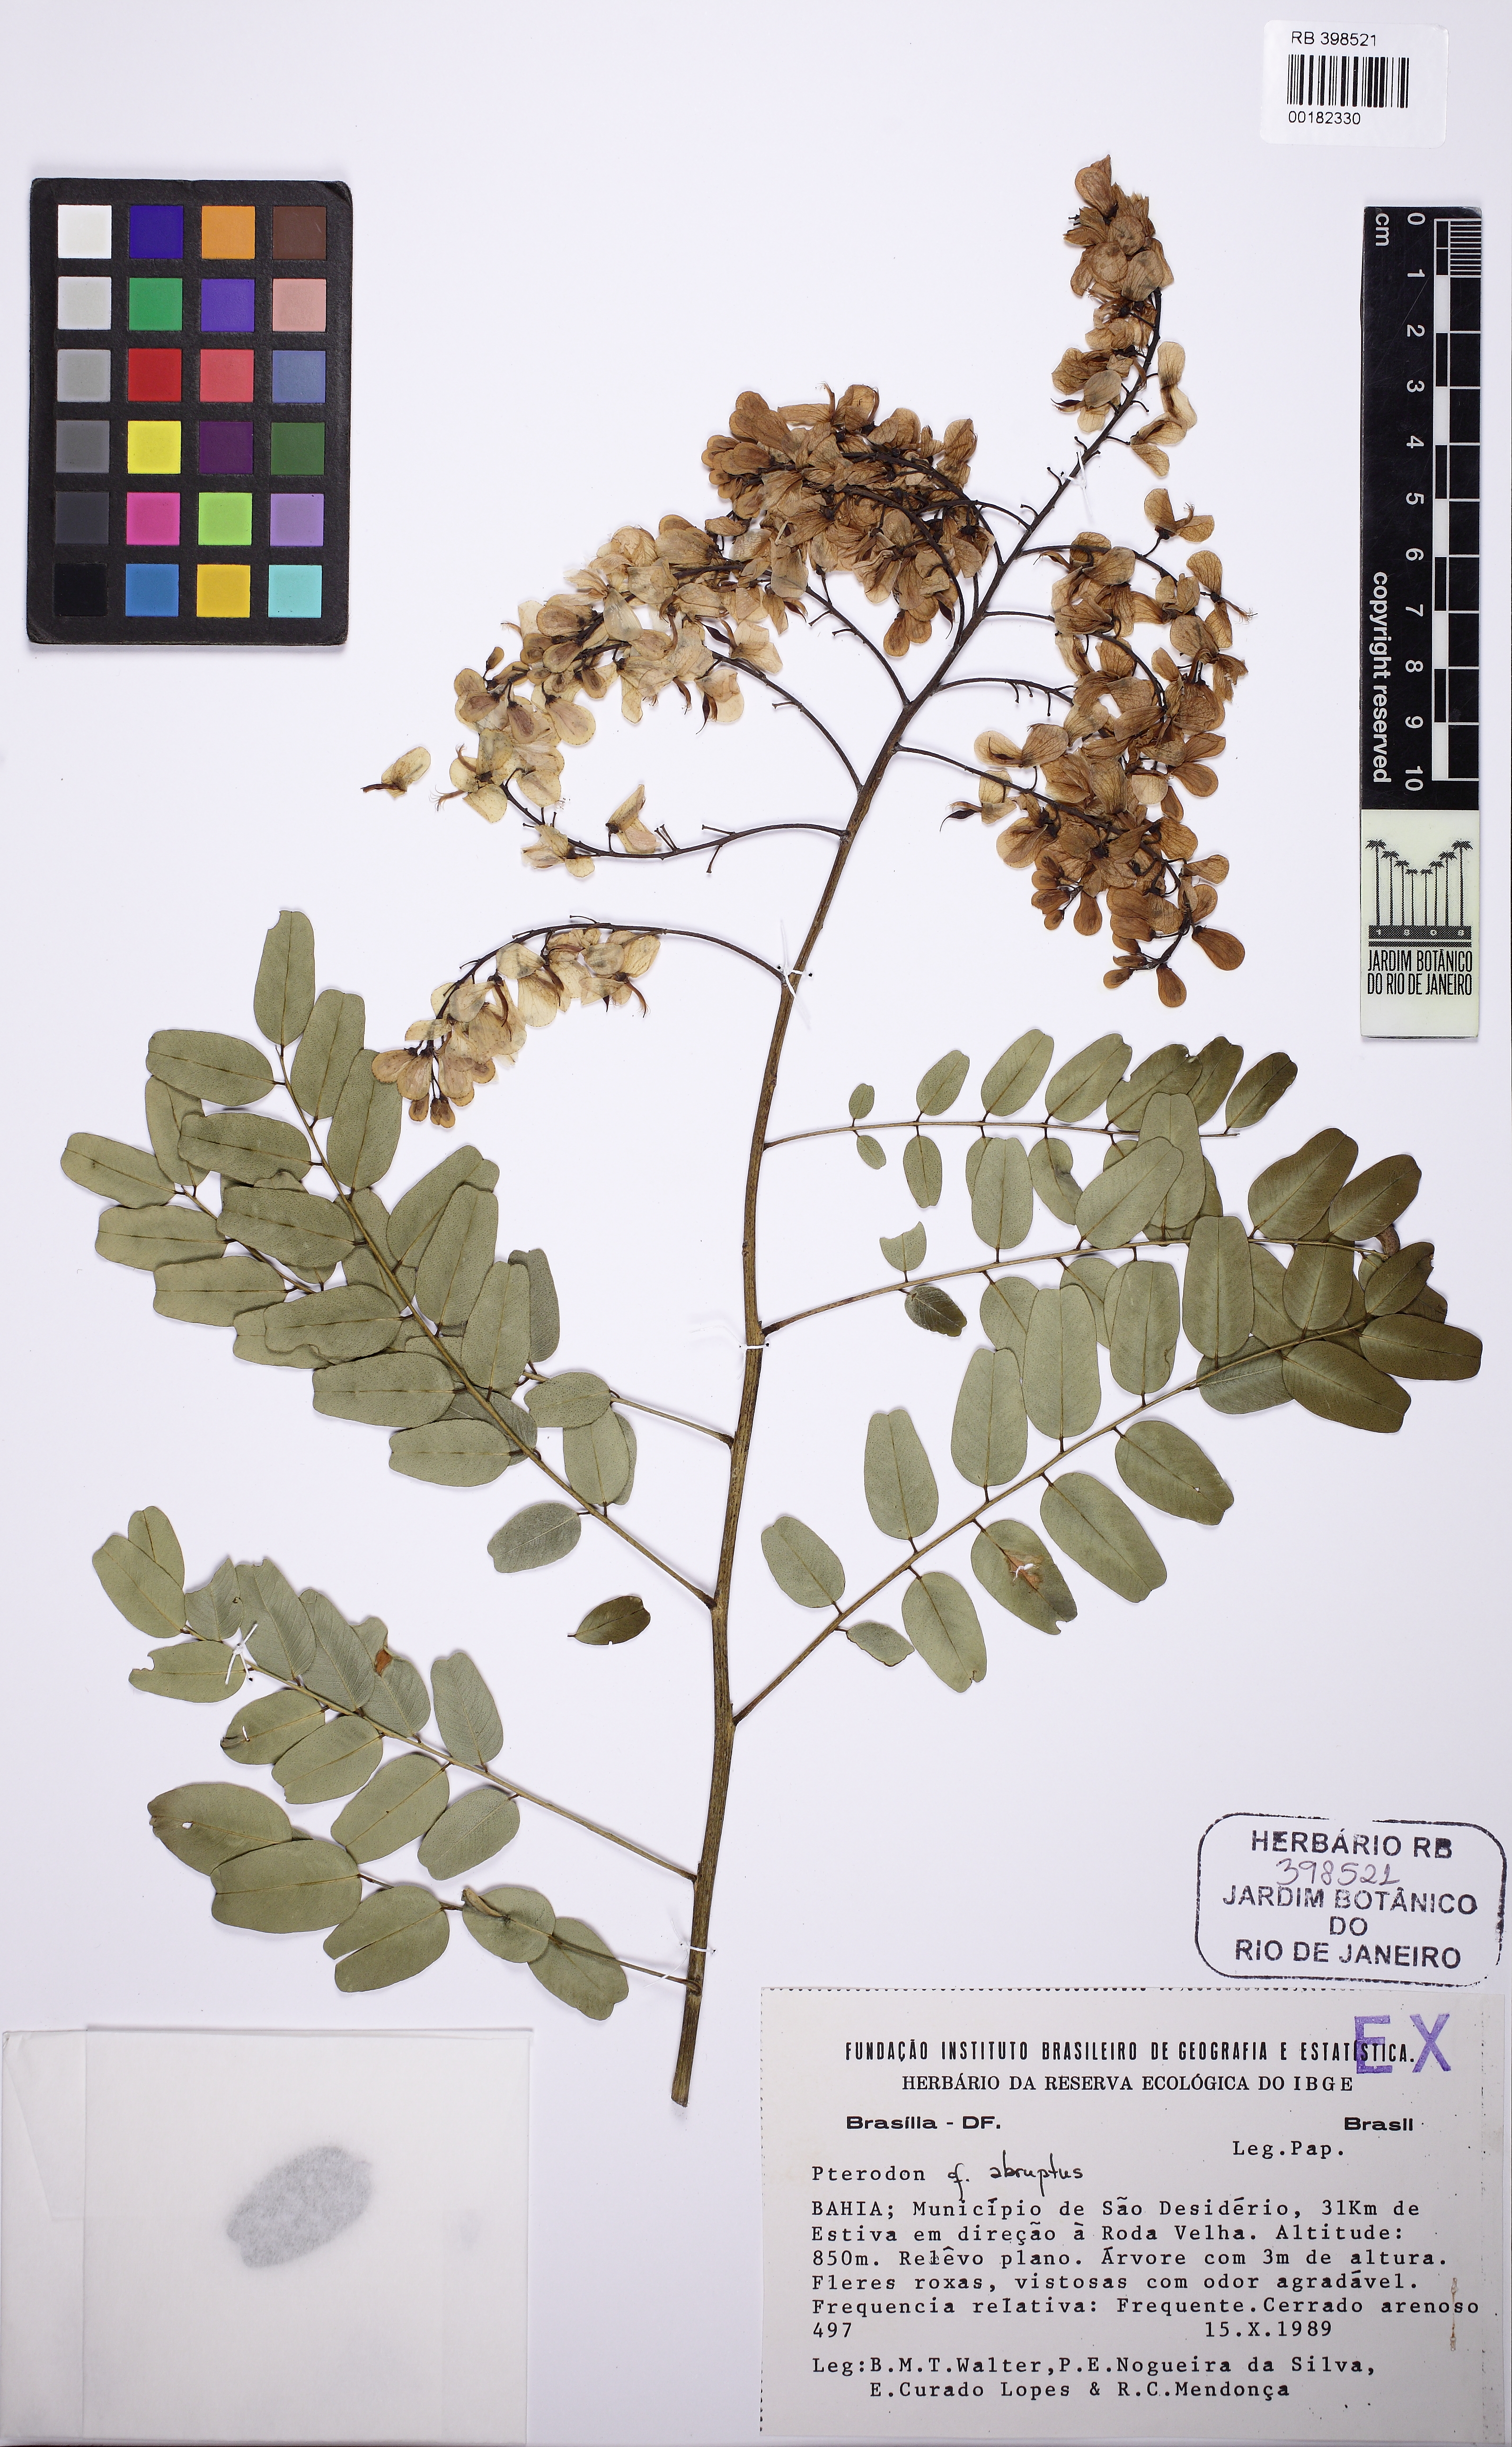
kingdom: Plantae
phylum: Tracheophyta
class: Magnoliopsida
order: Fabales
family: Fabaceae
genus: Pterodon
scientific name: Pterodon abruptus
